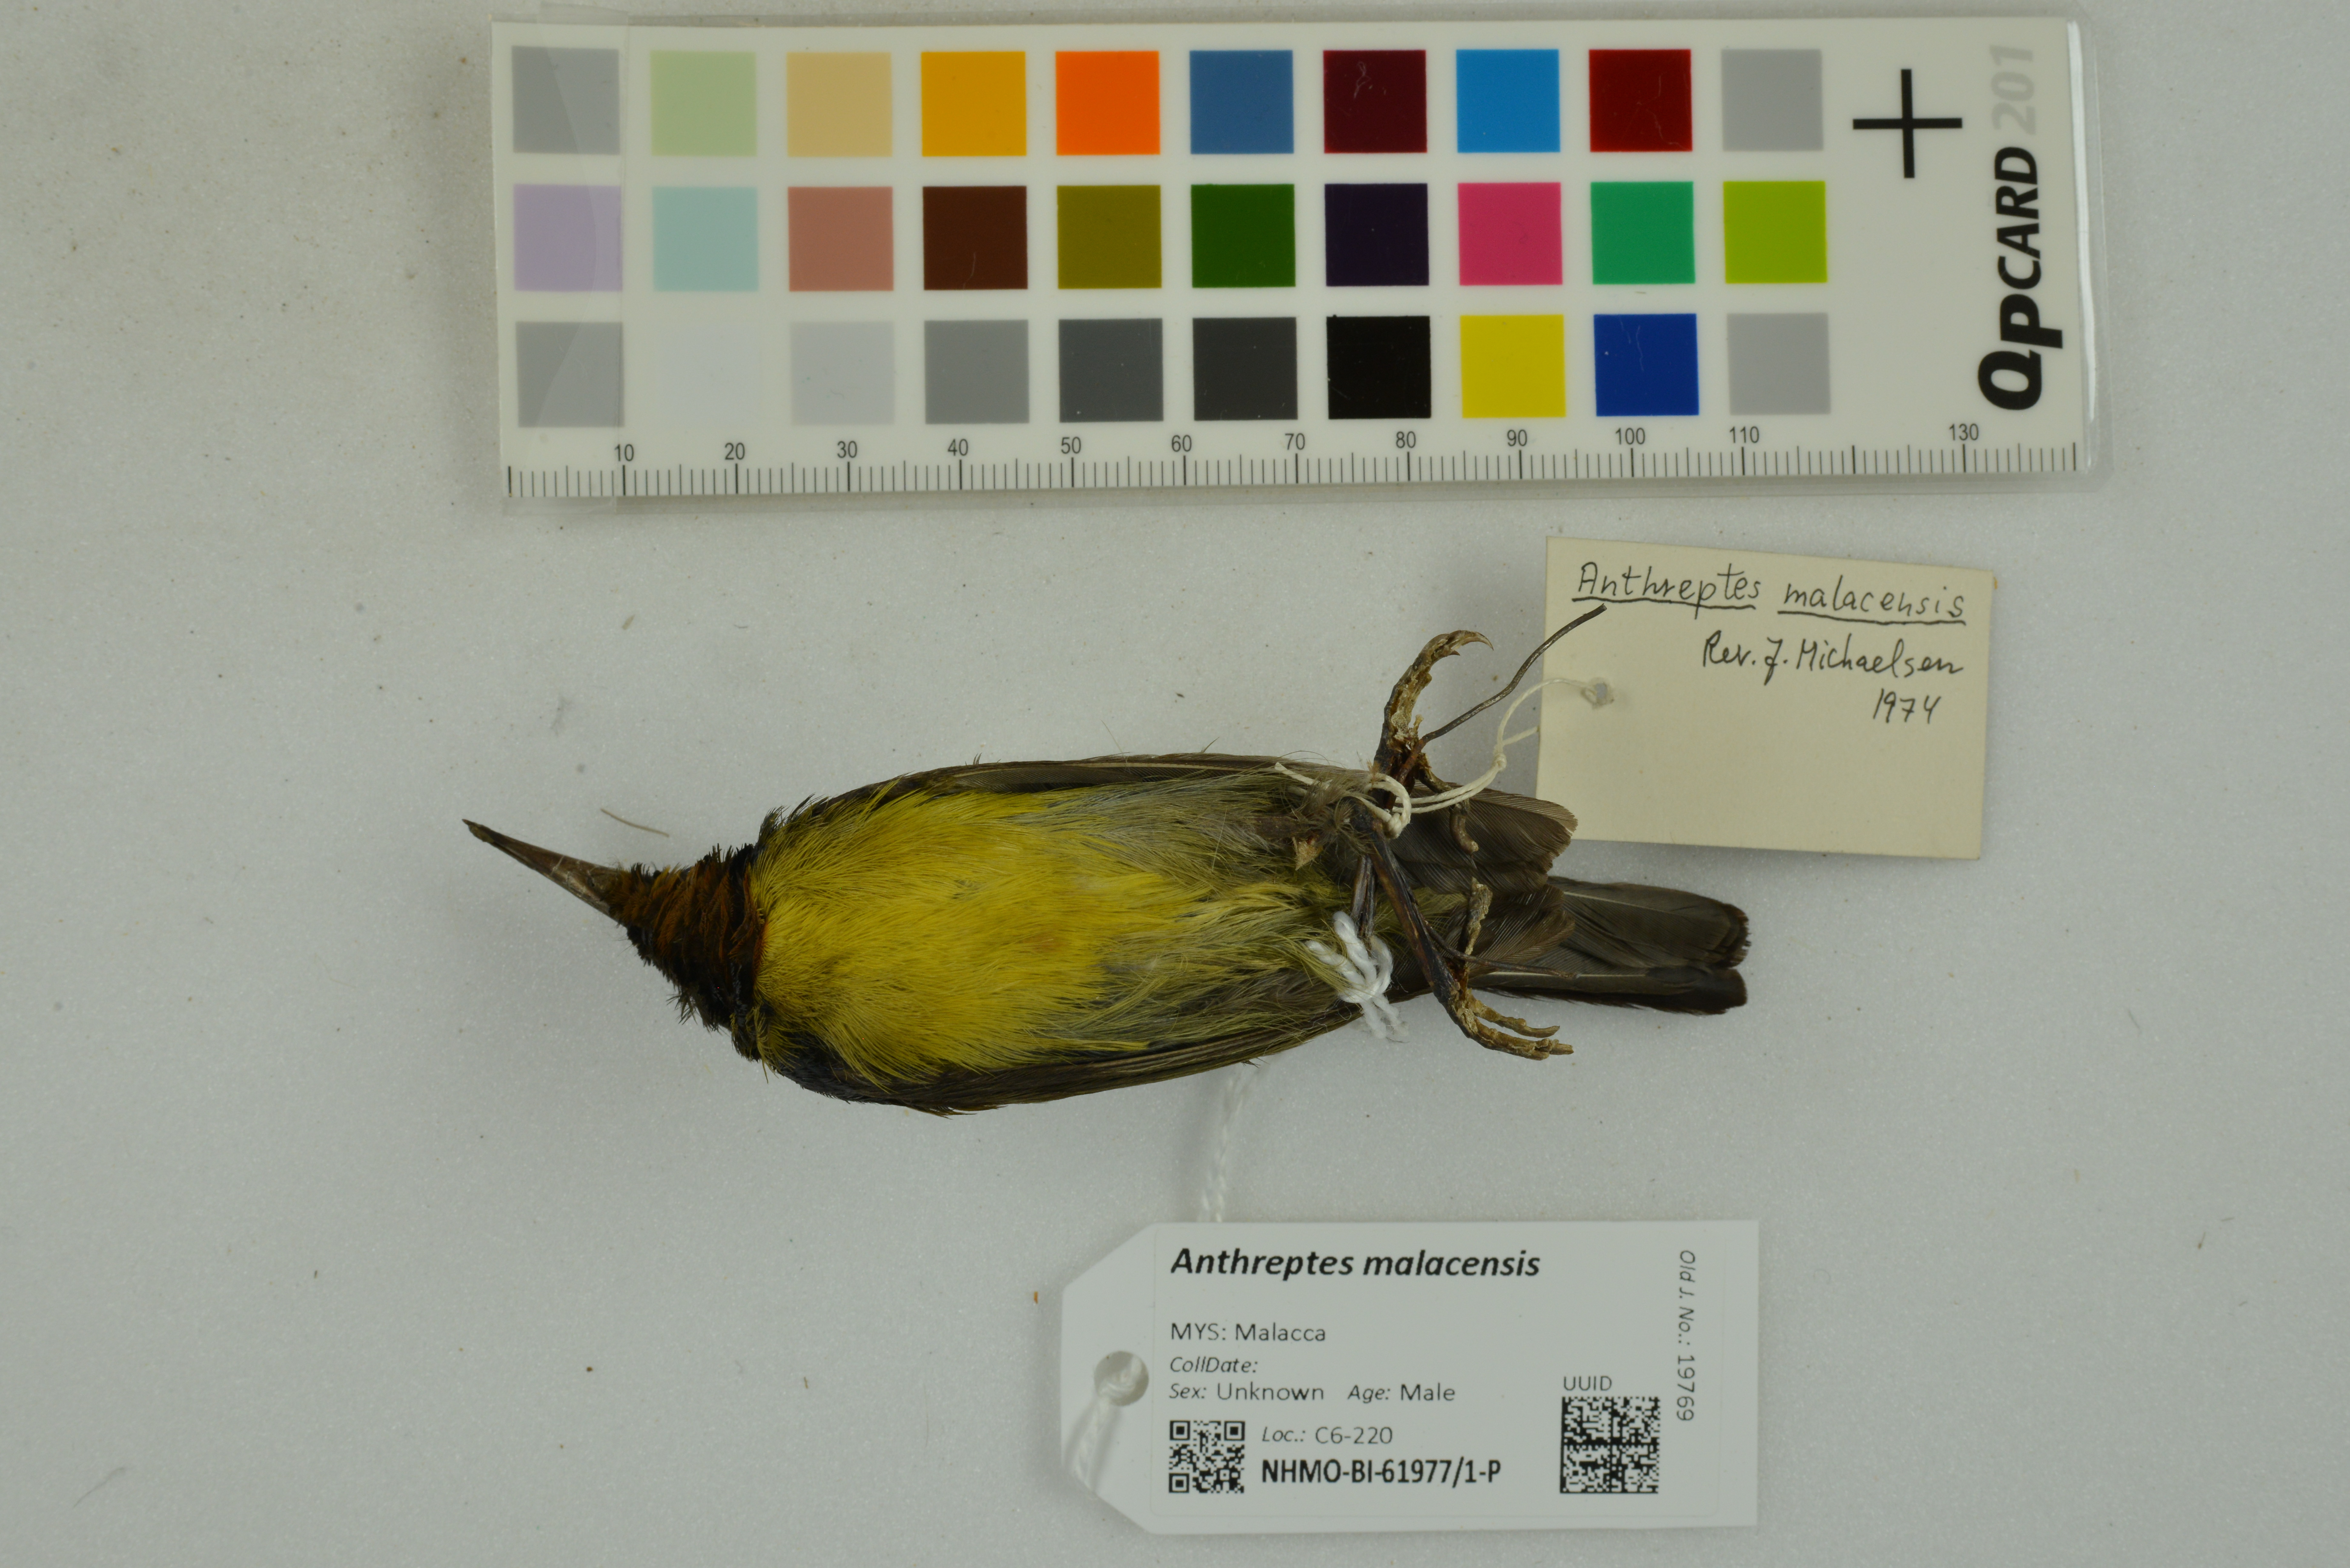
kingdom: Animalia
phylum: Chordata
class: Aves
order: Passeriformes
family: Nectariniidae
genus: Anthreptes
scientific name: Anthreptes malacensis
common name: Brown-throated sunbird
